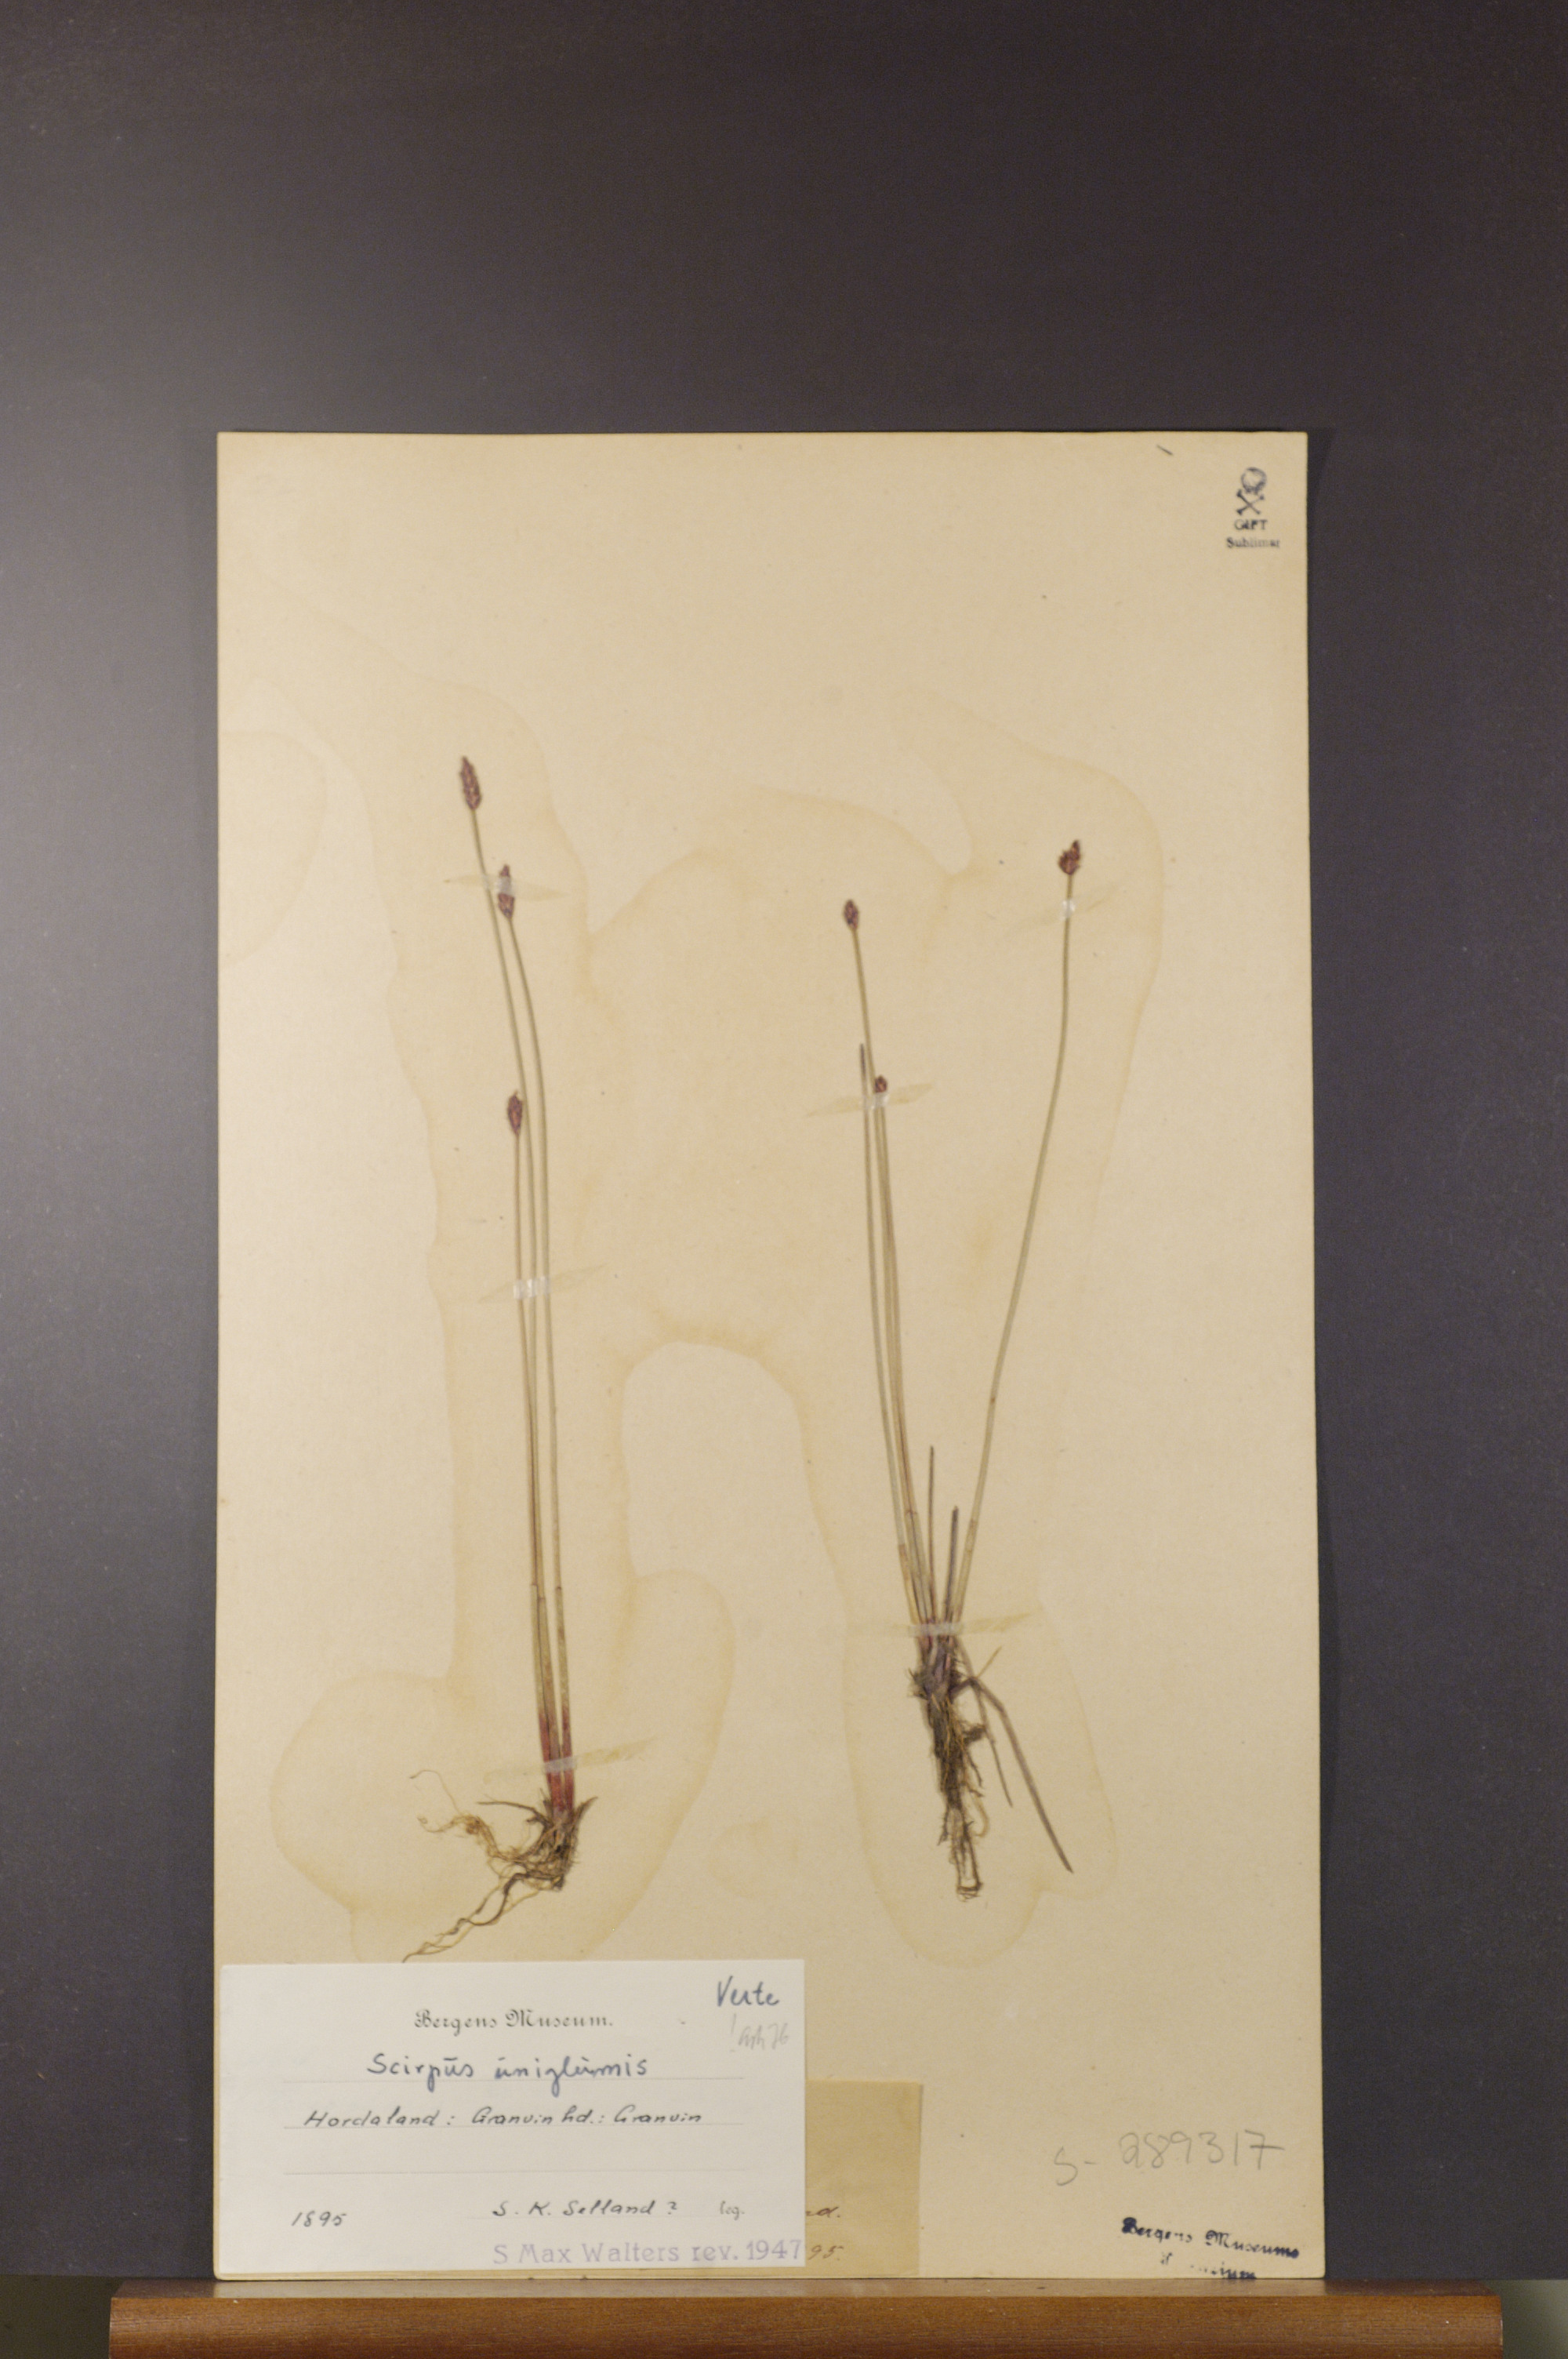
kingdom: Plantae
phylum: Tracheophyta
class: Liliopsida
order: Poales
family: Cyperaceae
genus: Eleocharis
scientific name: Eleocharis uniglumis
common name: Slender spike-rush
